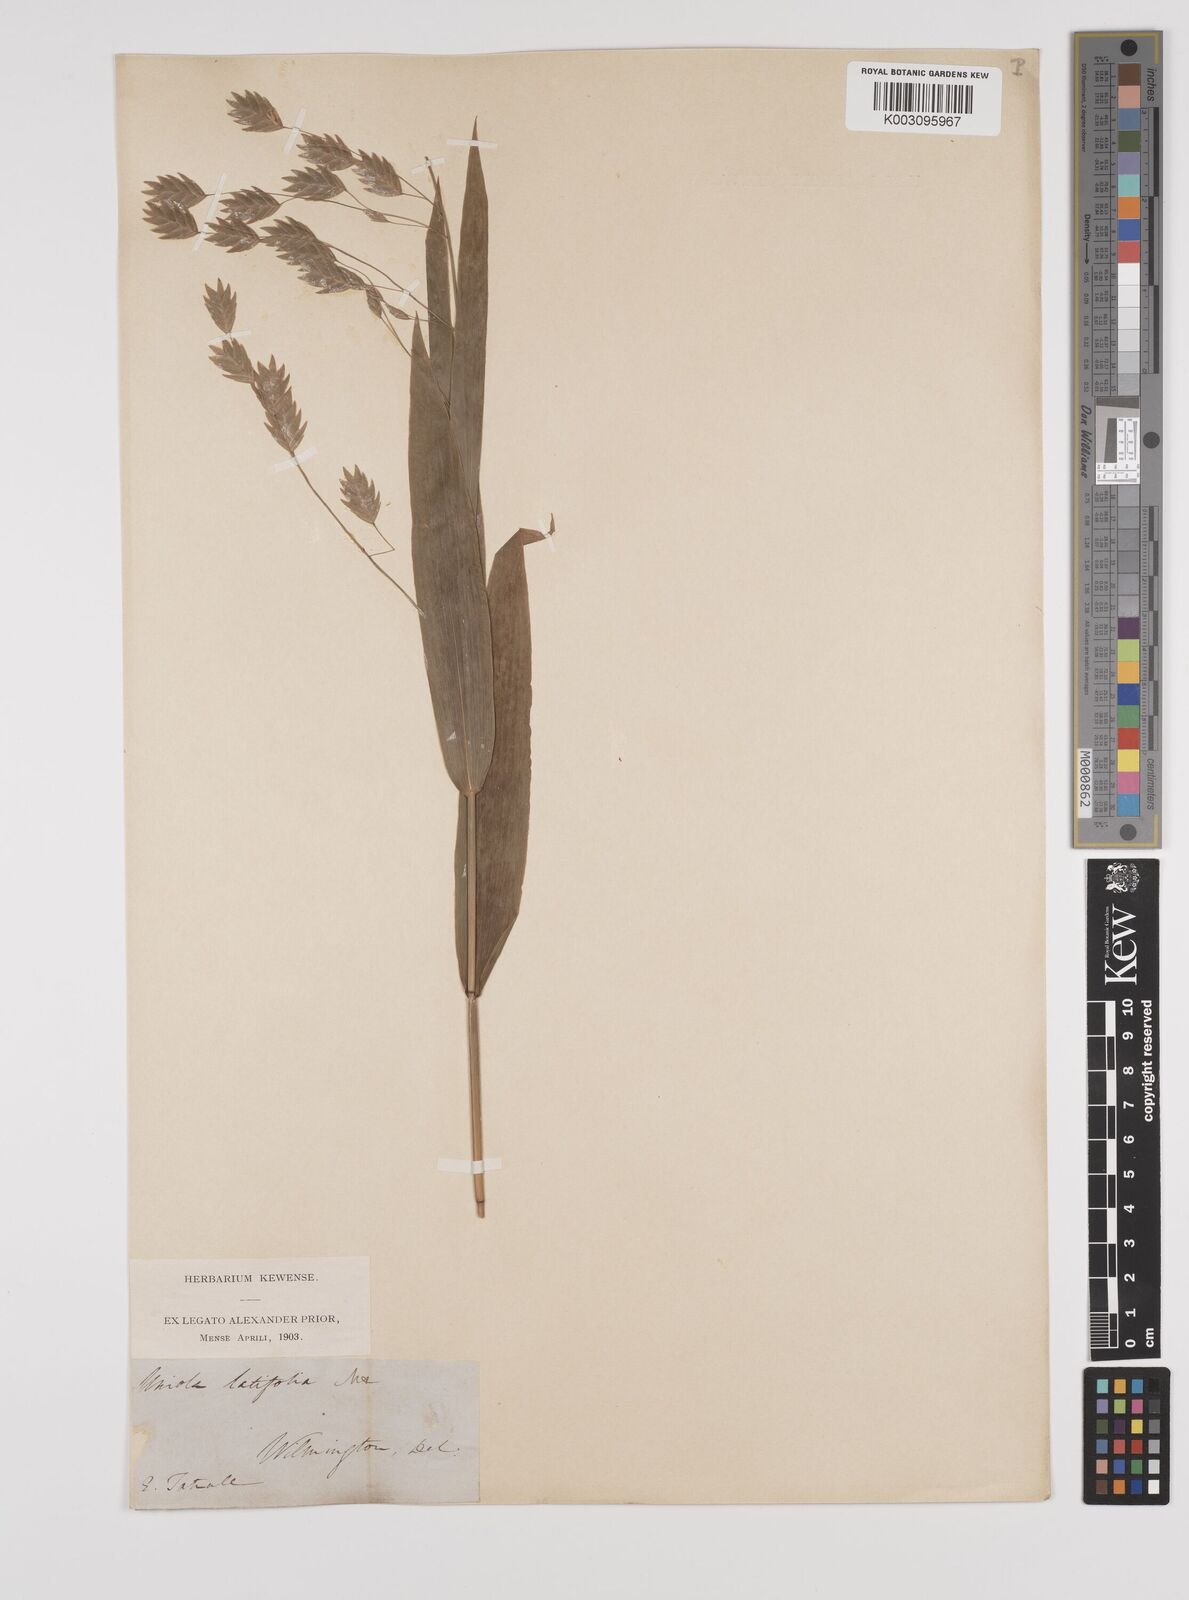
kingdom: Plantae
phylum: Tracheophyta
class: Liliopsida
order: Poales
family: Poaceae
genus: Chasmanthium
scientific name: Chasmanthium latifolium
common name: Broad-leaved chasmanthium
